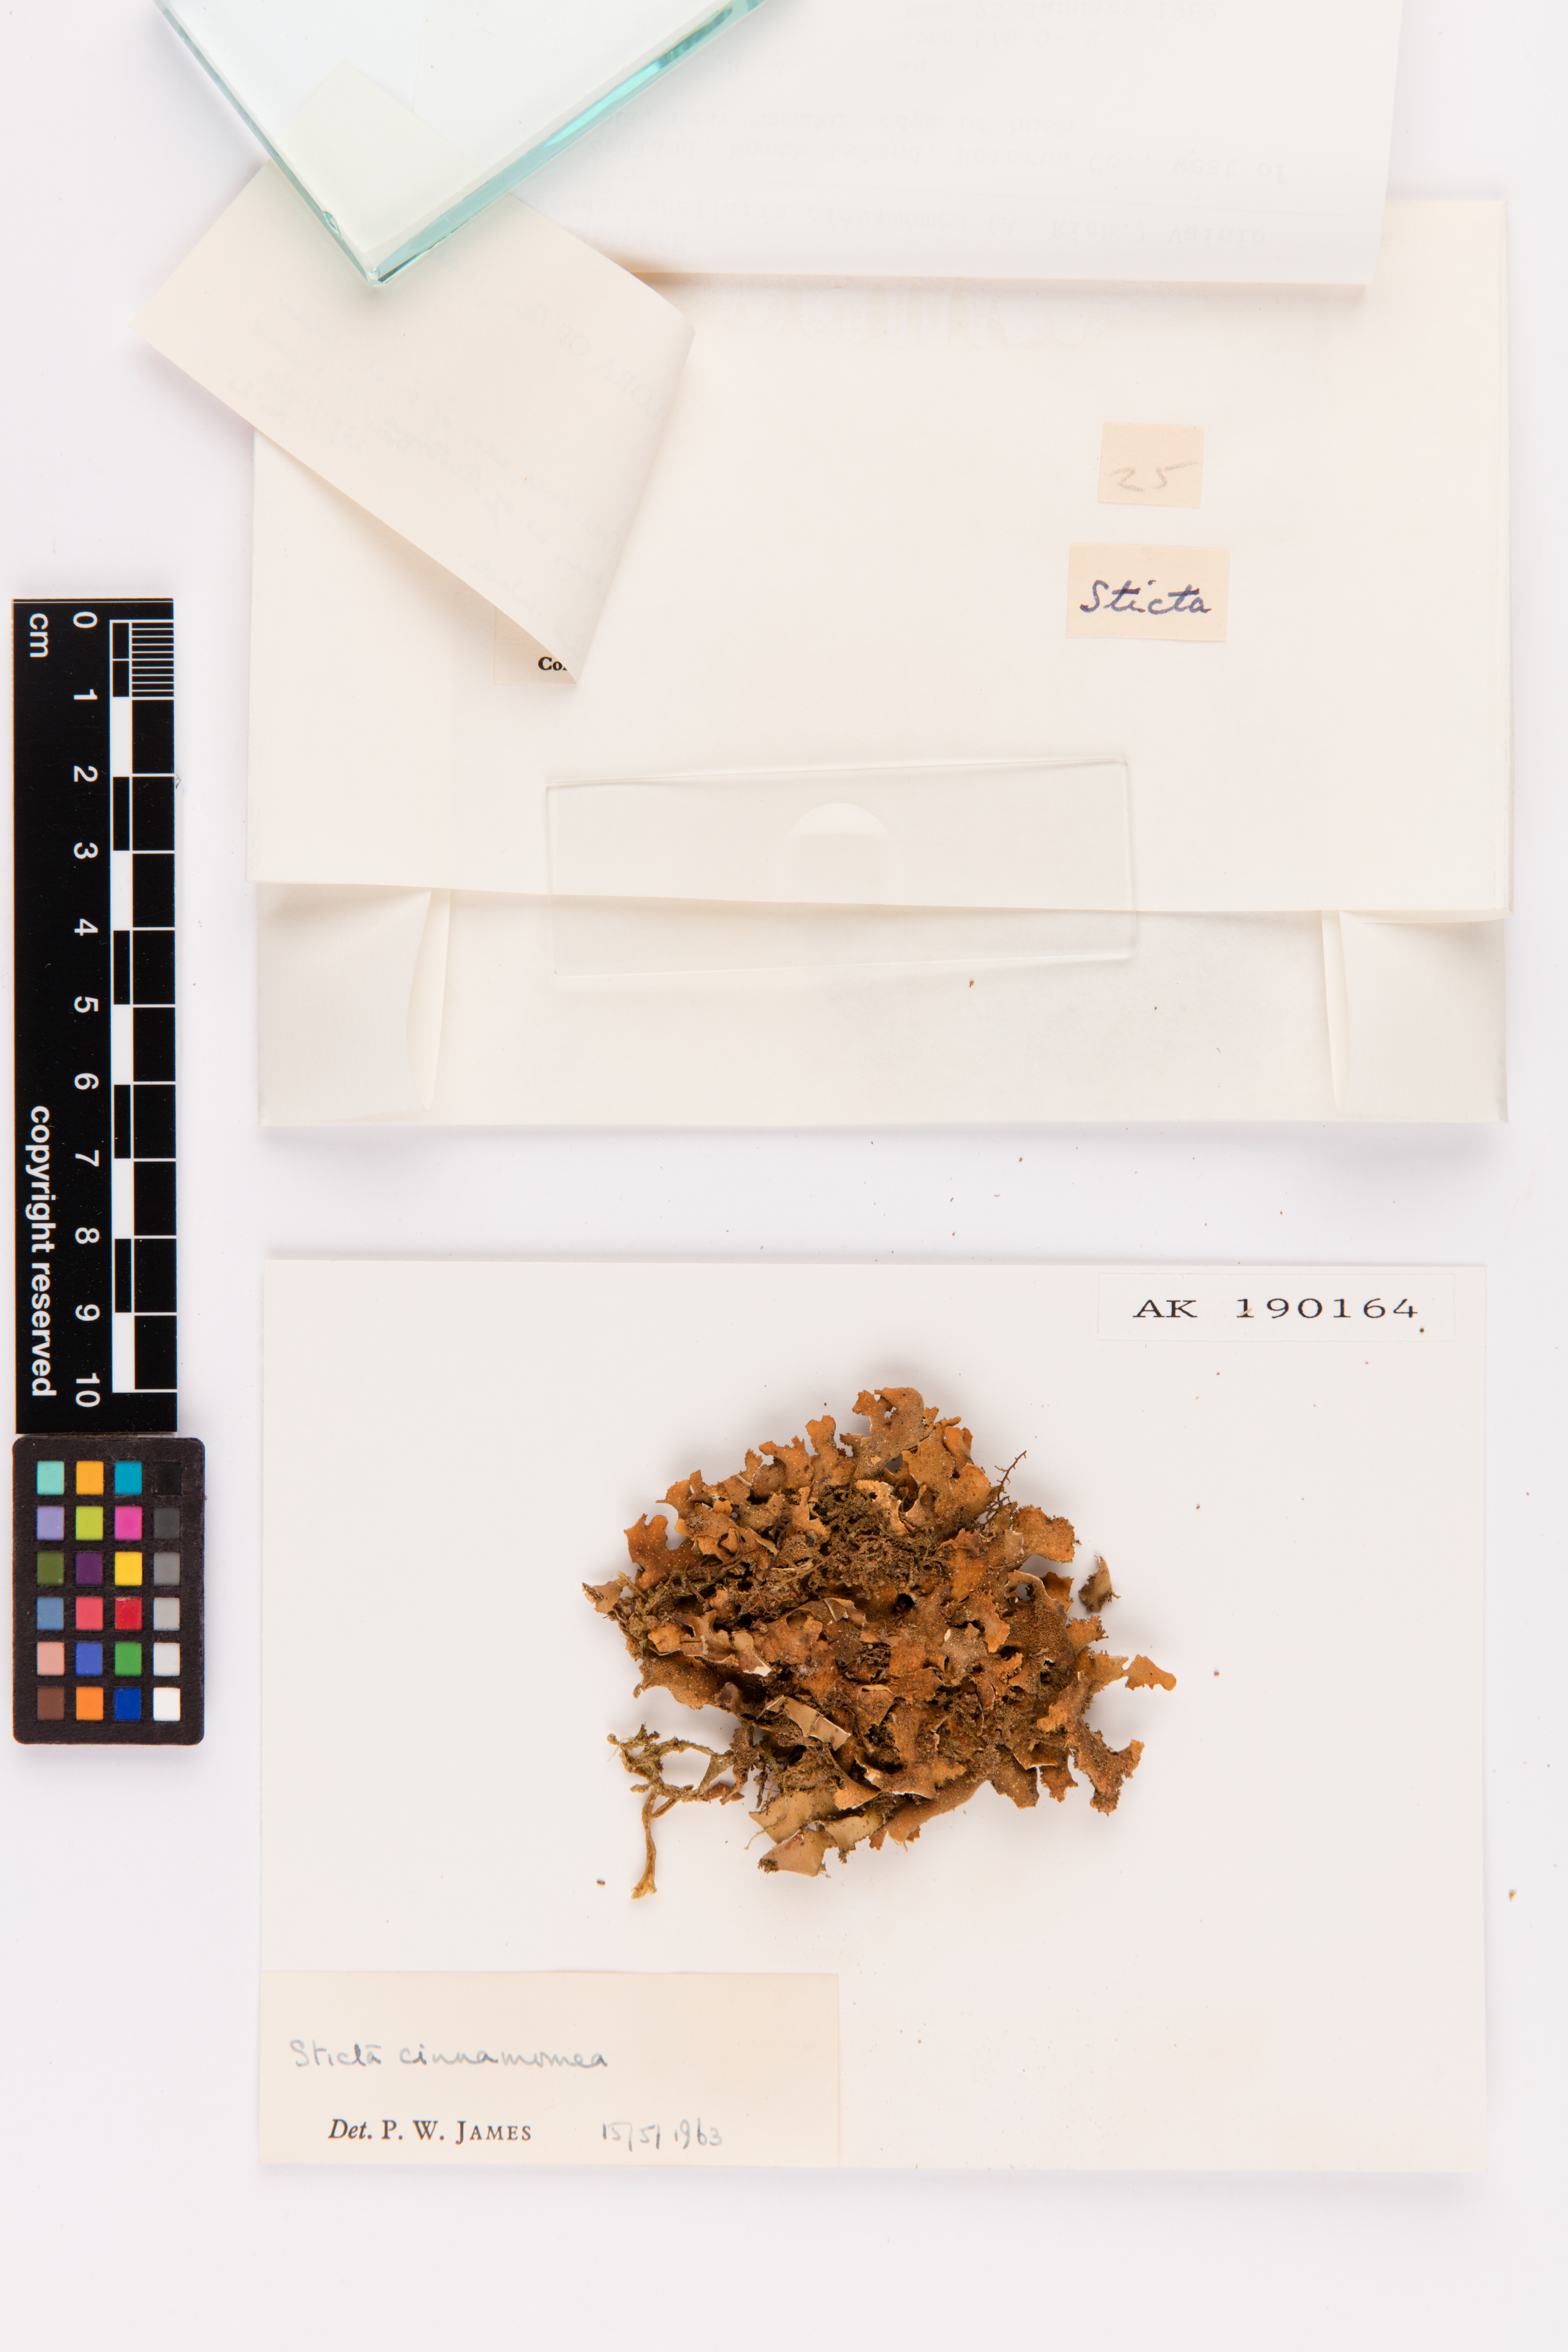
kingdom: Fungi
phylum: Ascomycota
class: Lecanoromycetes
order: Peltigerales
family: Lobariaceae
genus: Pseudocyphellaria
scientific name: Pseudocyphellaria cinnamomea
